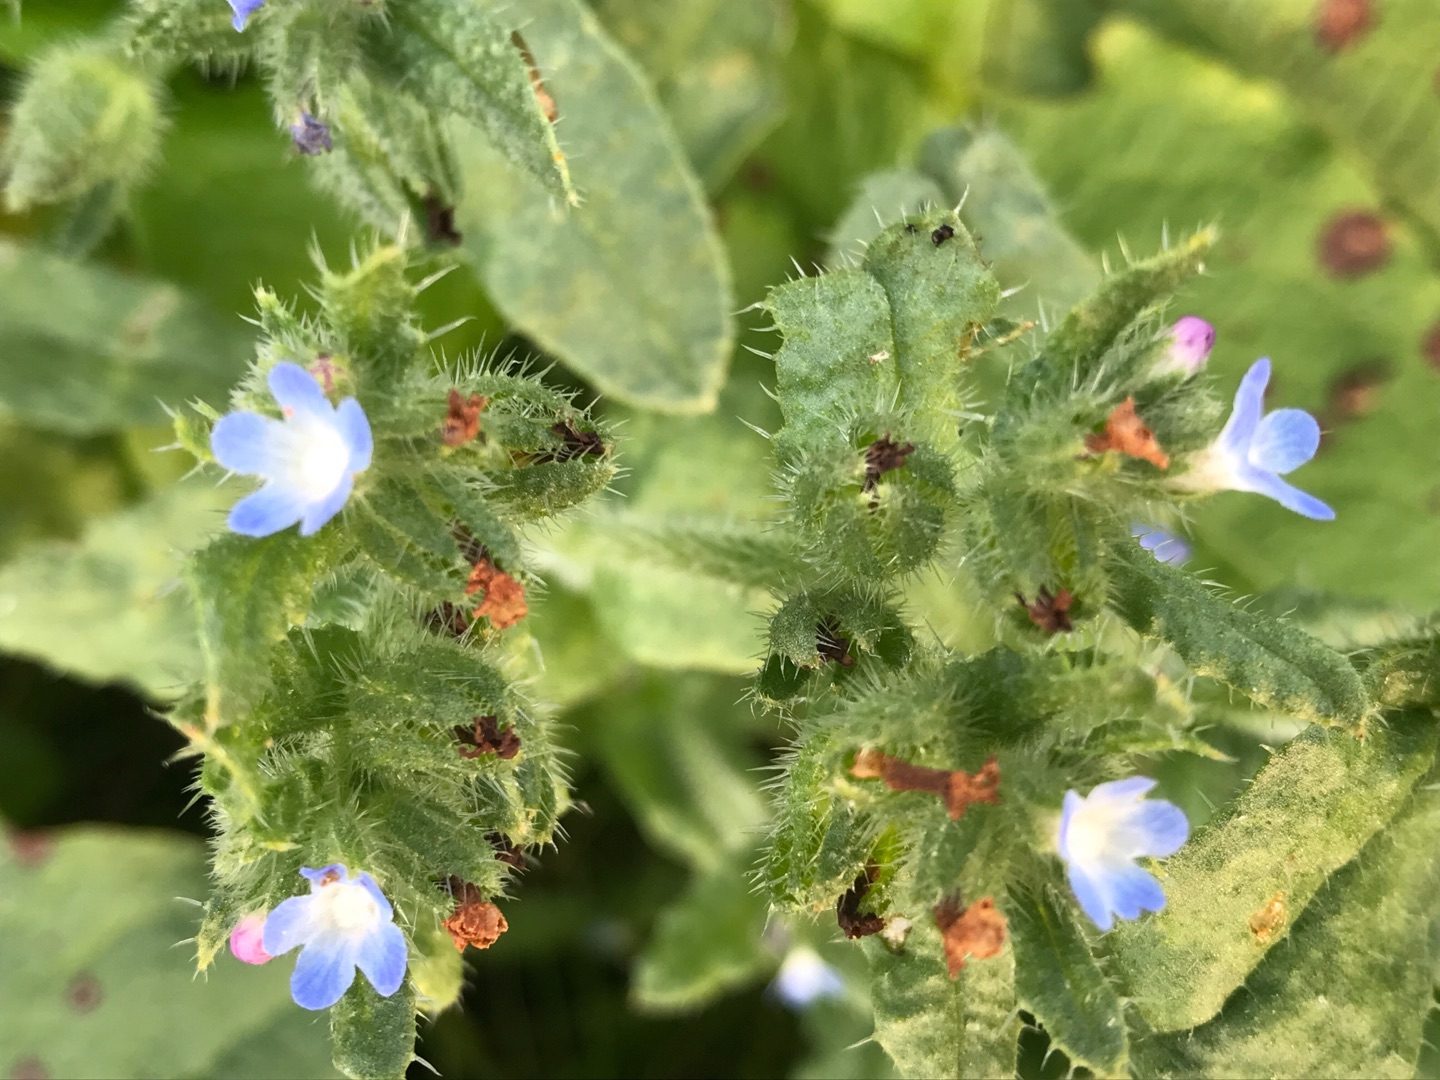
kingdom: Plantae
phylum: Tracheophyta
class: Magnoliopsida
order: Boraginales
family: Boraginaceae
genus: Lycopsis
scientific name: Lycopsis arvensis
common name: Krumhals
